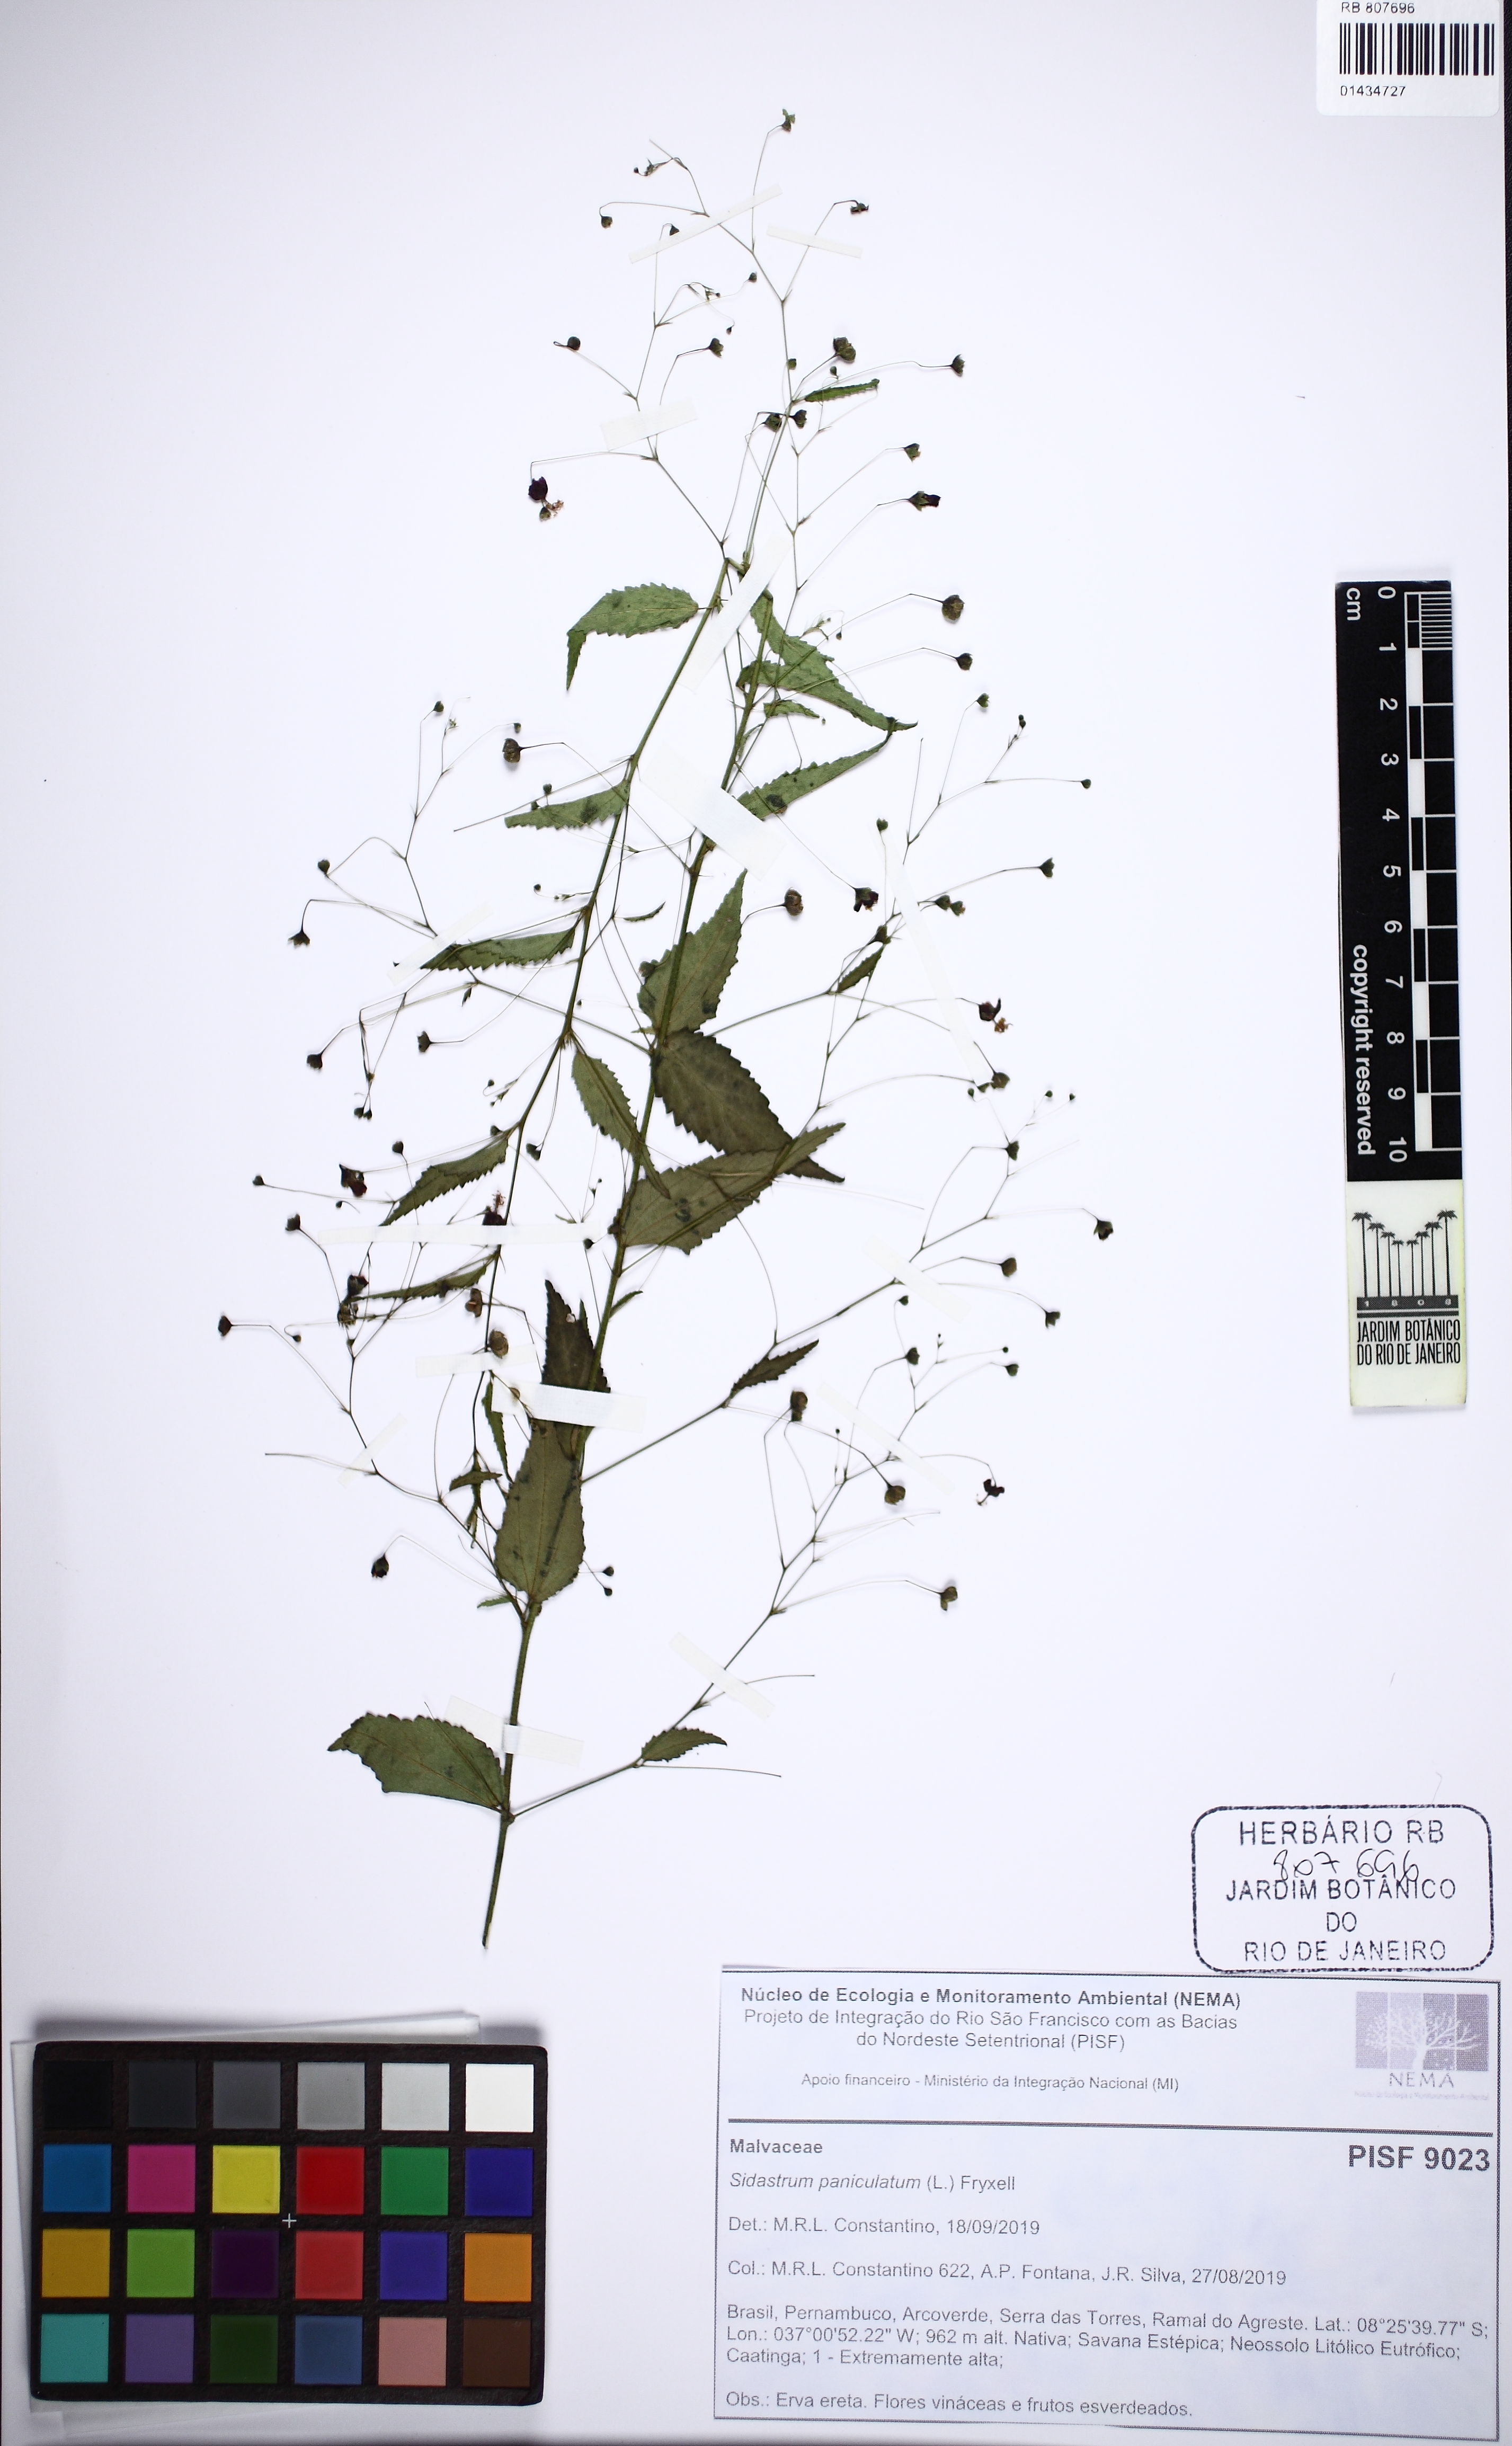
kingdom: Plantae
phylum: Tracheophyta
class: Magnoliopsida
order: Malvales
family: Malvaceae
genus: Sidastrum
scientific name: Sidastrum paniculatum
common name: Panicled sandmallow
